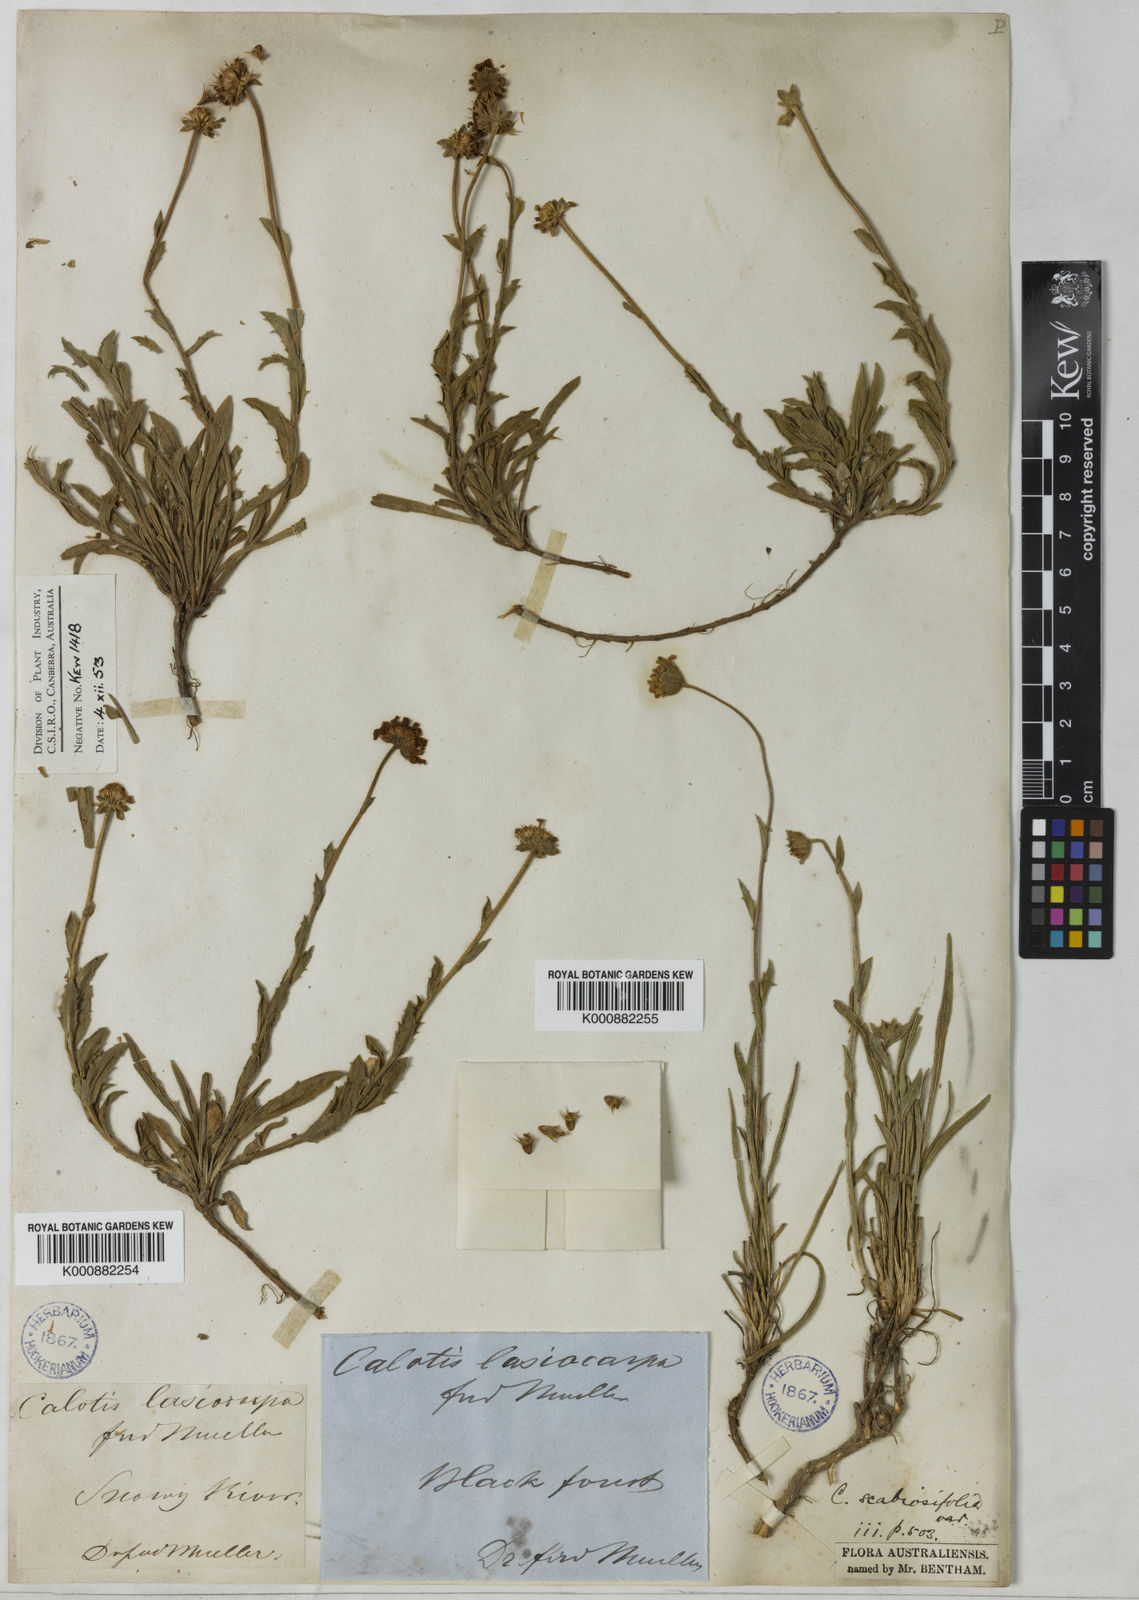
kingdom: Plantae
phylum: Tracheophyta
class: Magnoliopsida
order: Asterales
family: Asteraceae
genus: Calotis
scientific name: Calotis scabiosifolia
